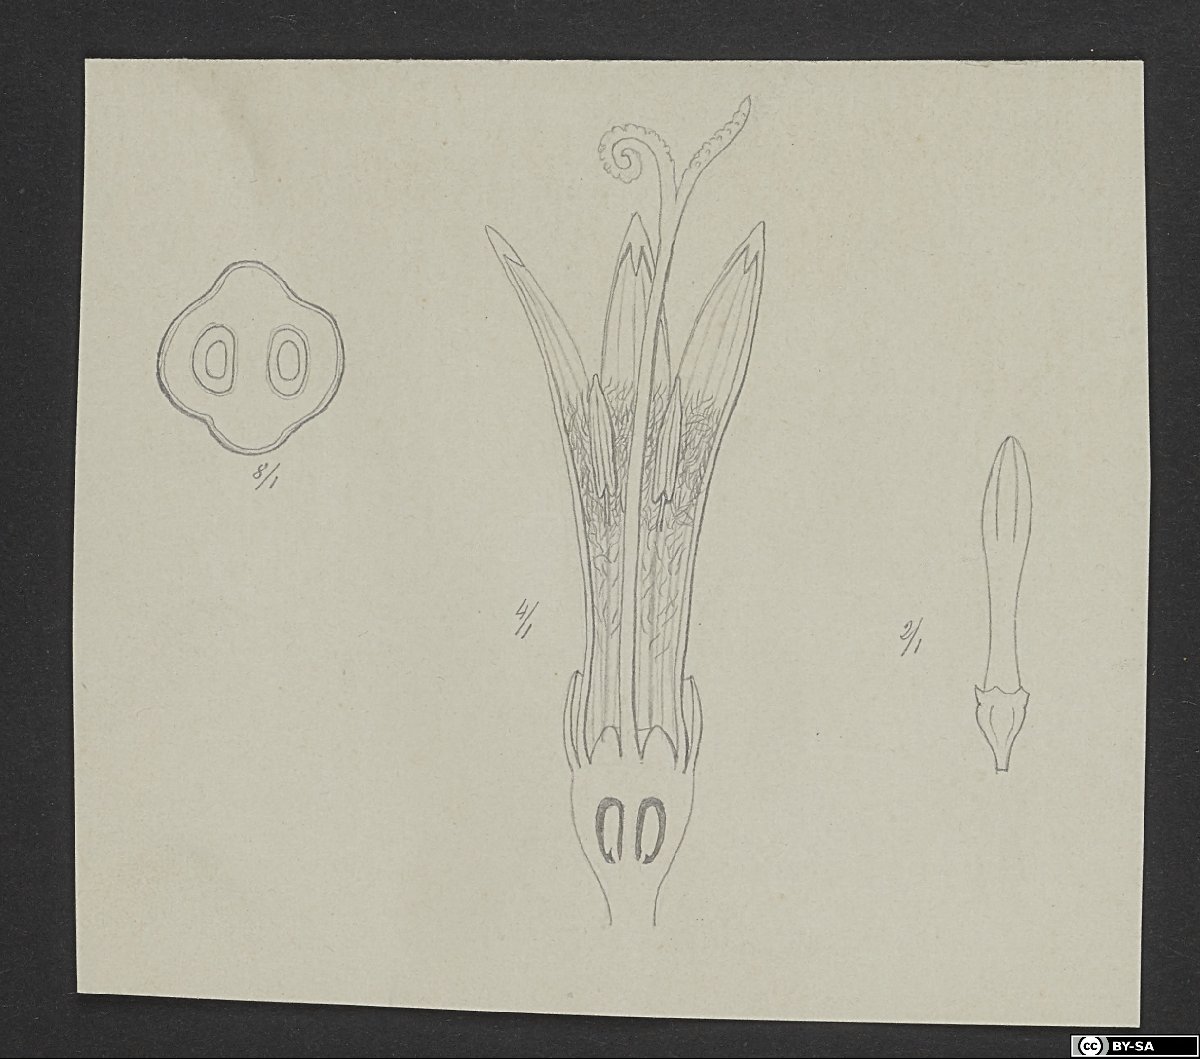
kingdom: Plantae
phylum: Tracheophyta
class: Magnoliopsida
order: Asterales
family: Asteraceae
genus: Hieracium
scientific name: Hieracium galeroides
